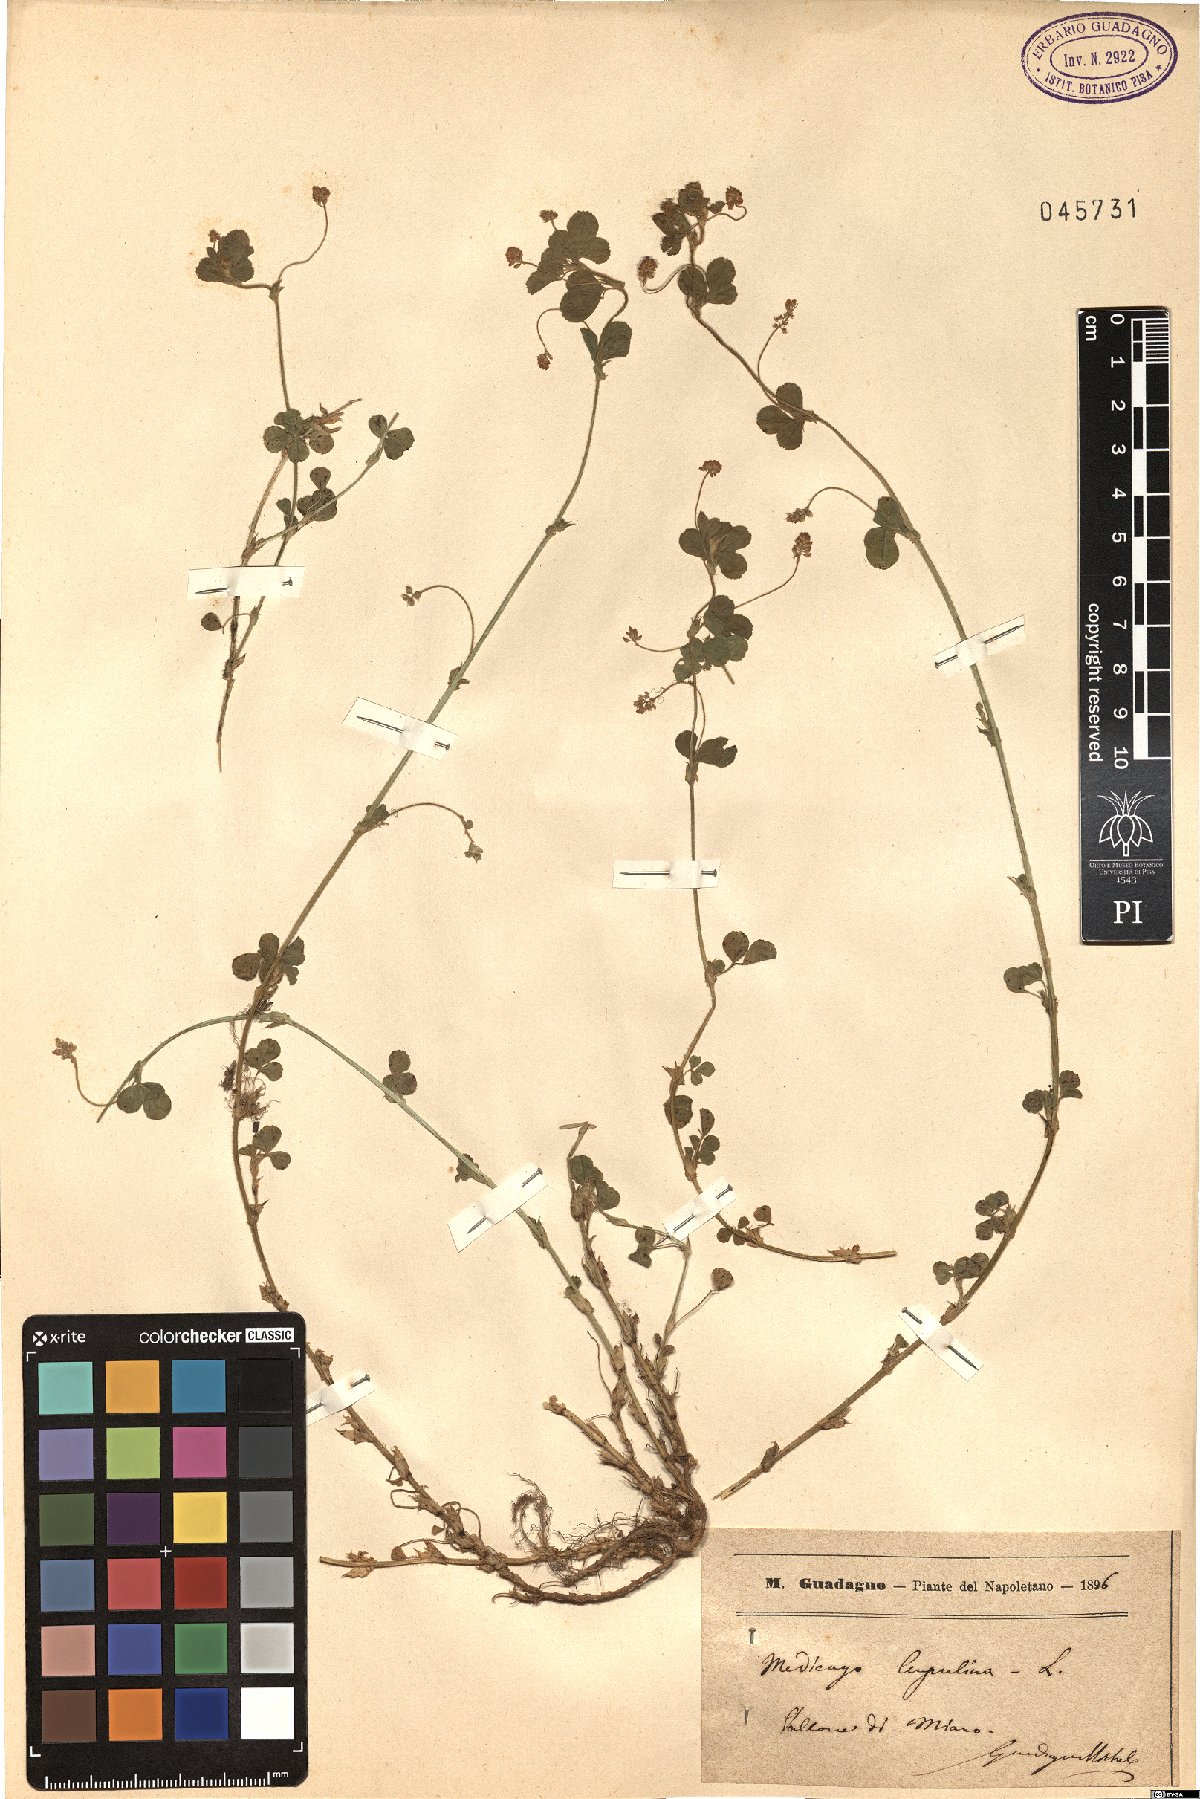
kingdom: Plantae
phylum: Tracheophyta
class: Magnoliopsida
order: Fabales
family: Fabaceae
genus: Medicago
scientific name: Medicago lupulina
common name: Black medick
